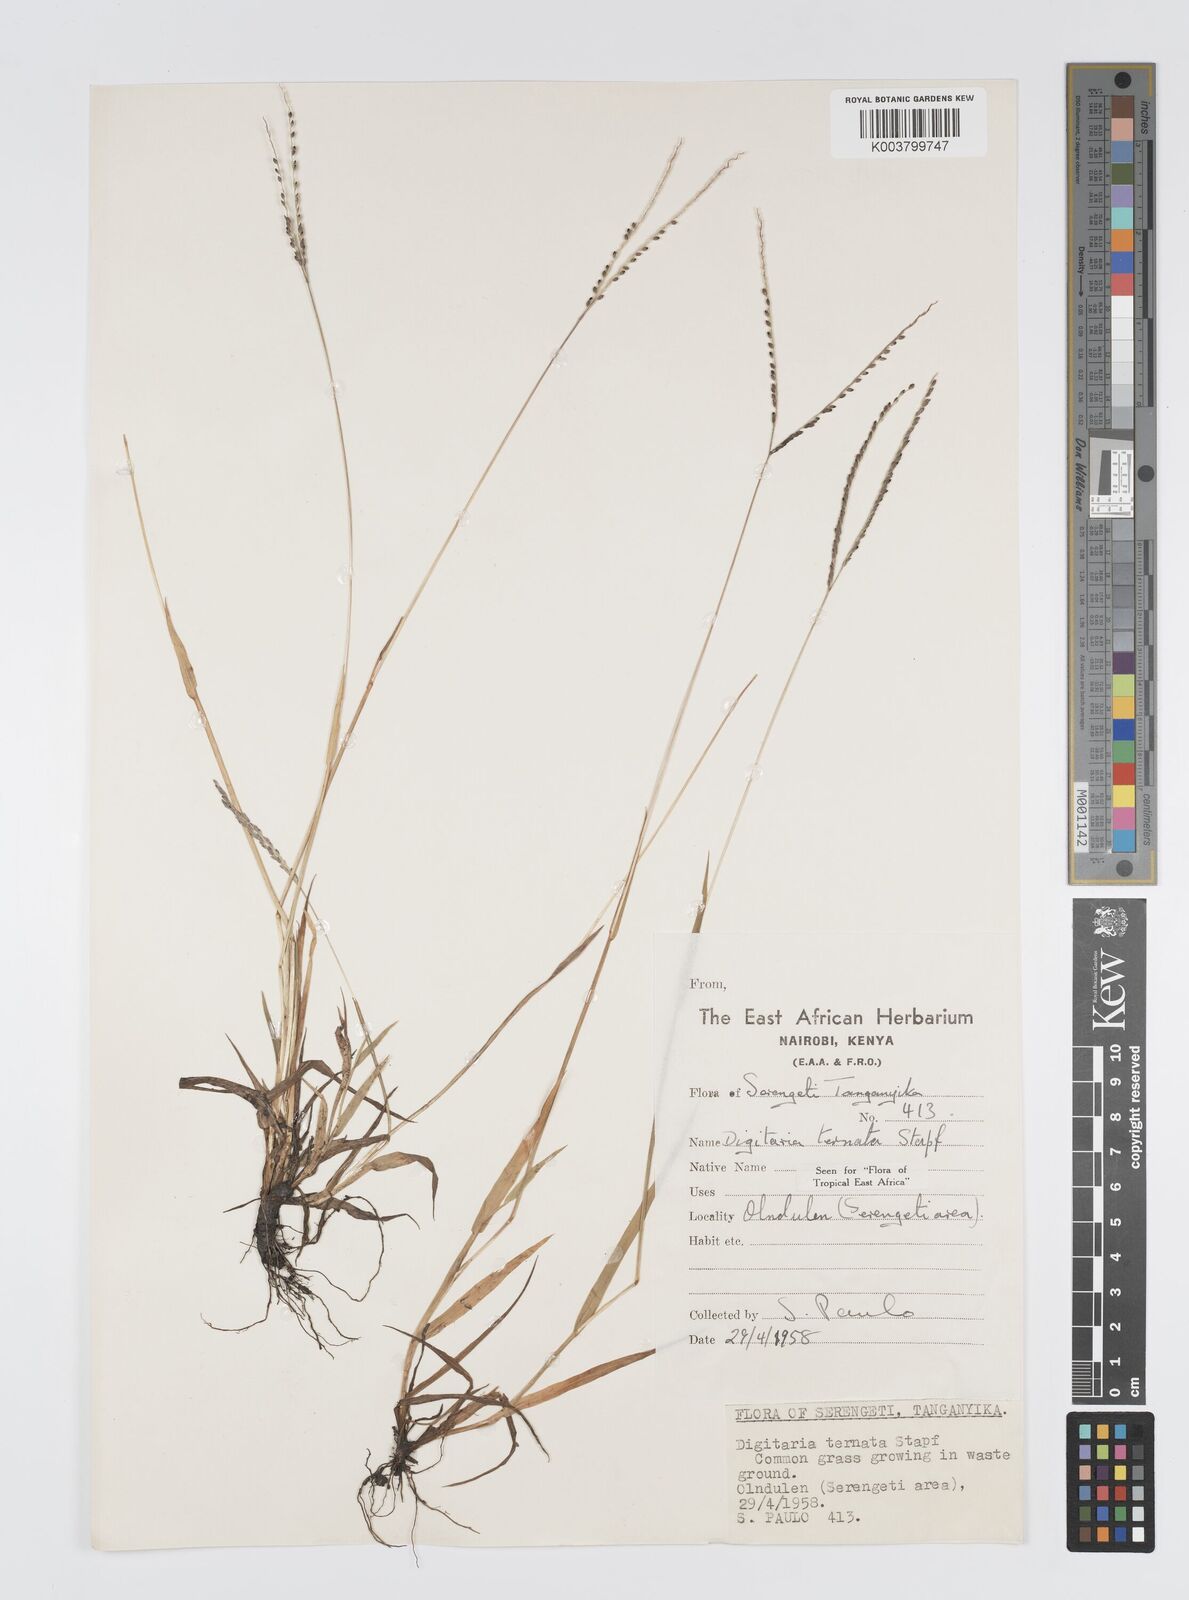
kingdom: Plantae
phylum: Tracheophyta
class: Liliopsida
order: Poales
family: Poaceae
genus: Digitaria
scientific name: Digitaria ternata
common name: Blackseed crabgrass
